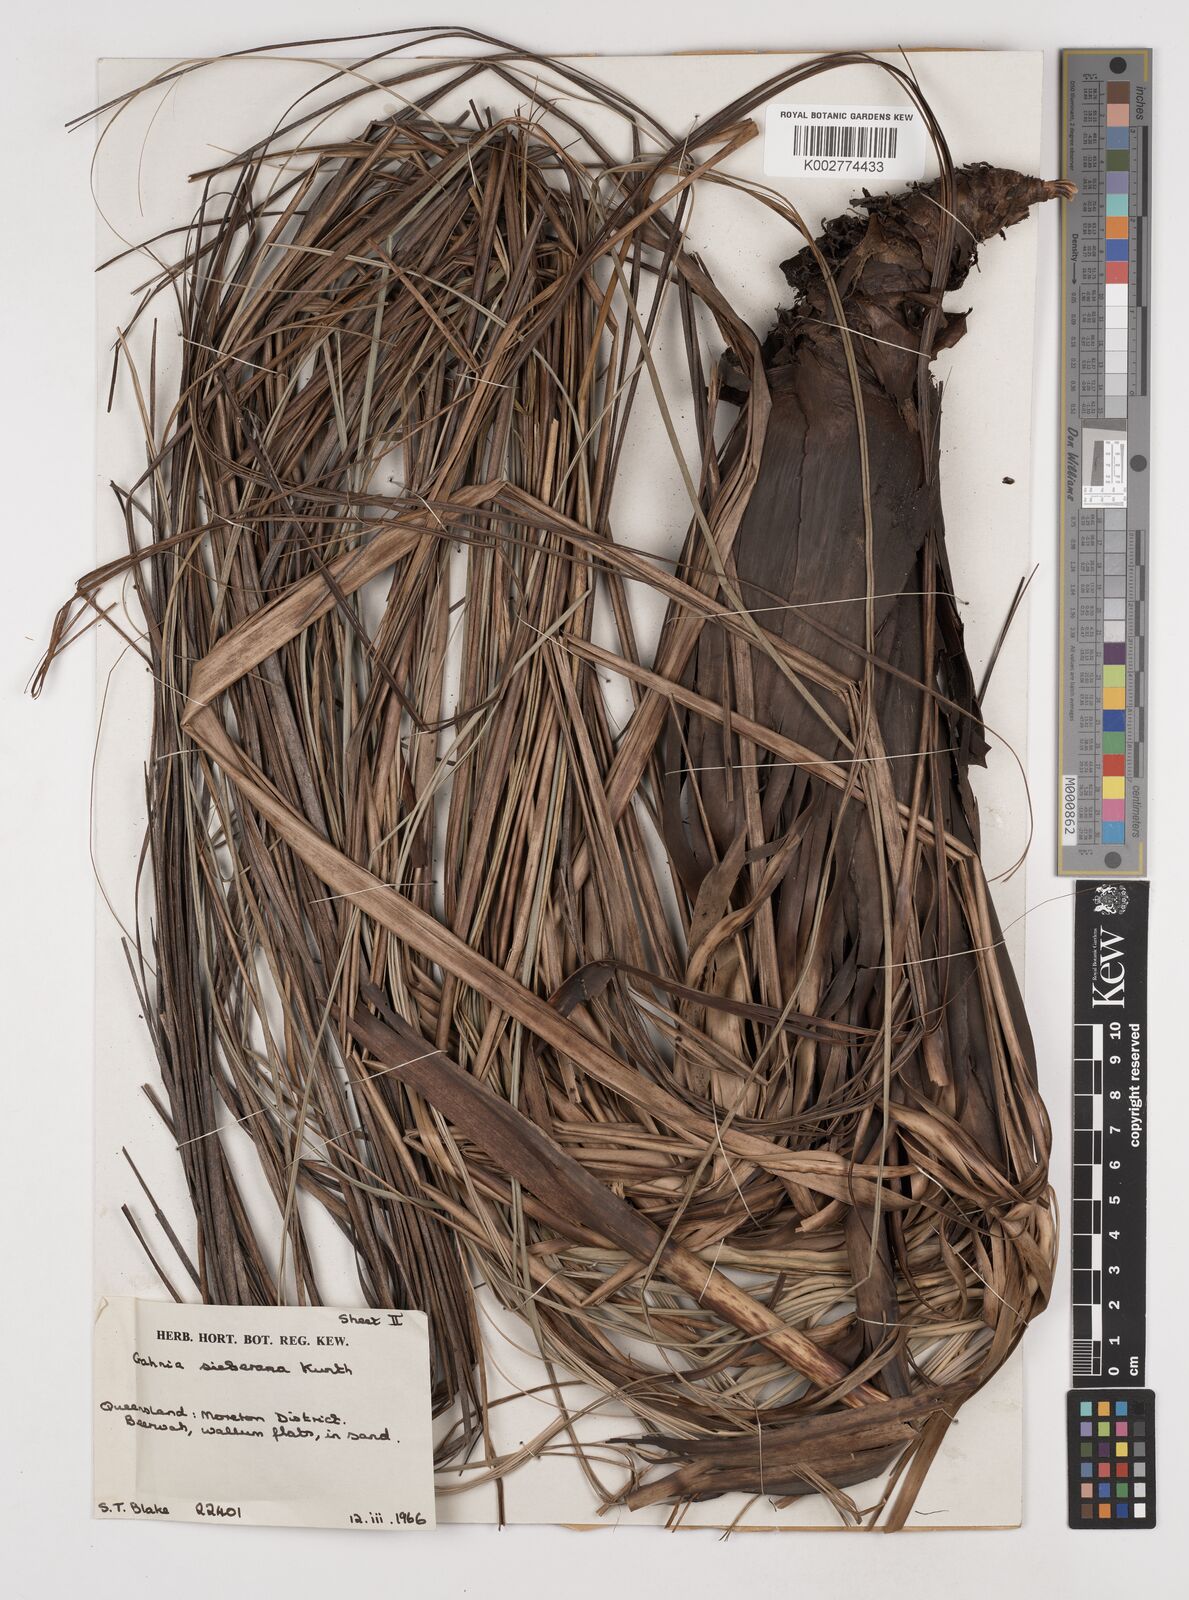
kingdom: Plantae
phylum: Tracheophyta
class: Liliopsida
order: Poales
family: Cyperaceae
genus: Gahnia
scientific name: Gahnia sieberiana
